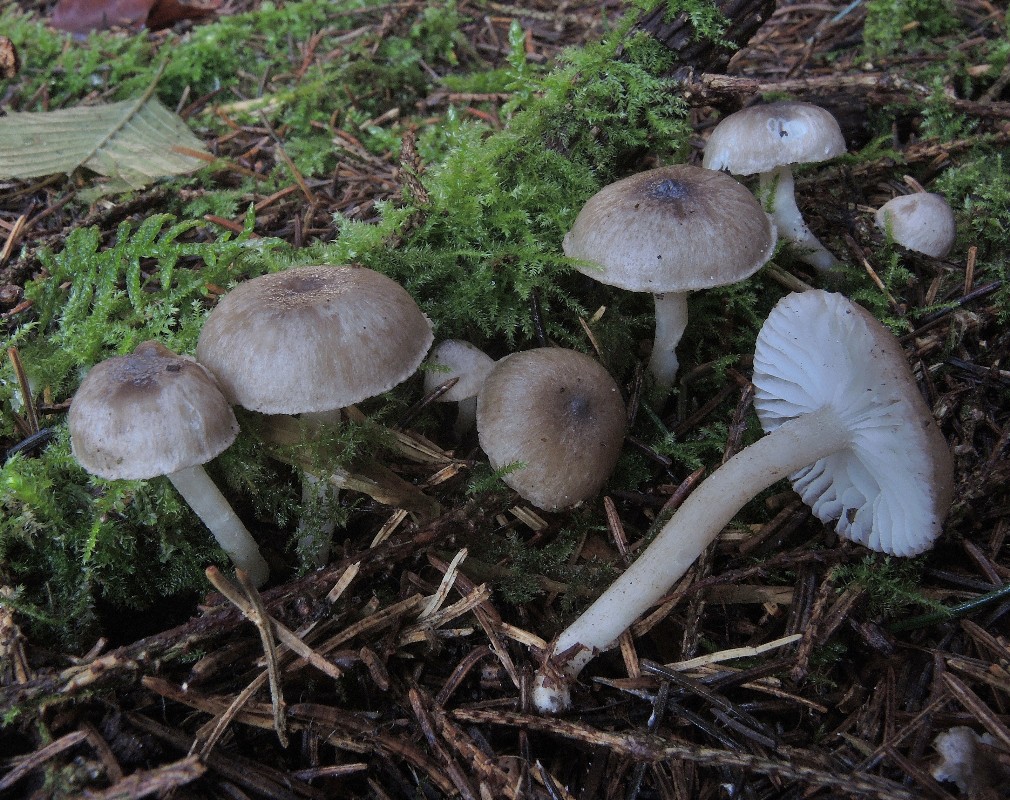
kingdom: Fungi
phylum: Basidiomycota
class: Agaricomycetes
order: Agaricales
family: Hygrophoraceae
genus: Hygrophorus
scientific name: Hygrophorus pustulatus
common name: mørkprikket sneglehat
